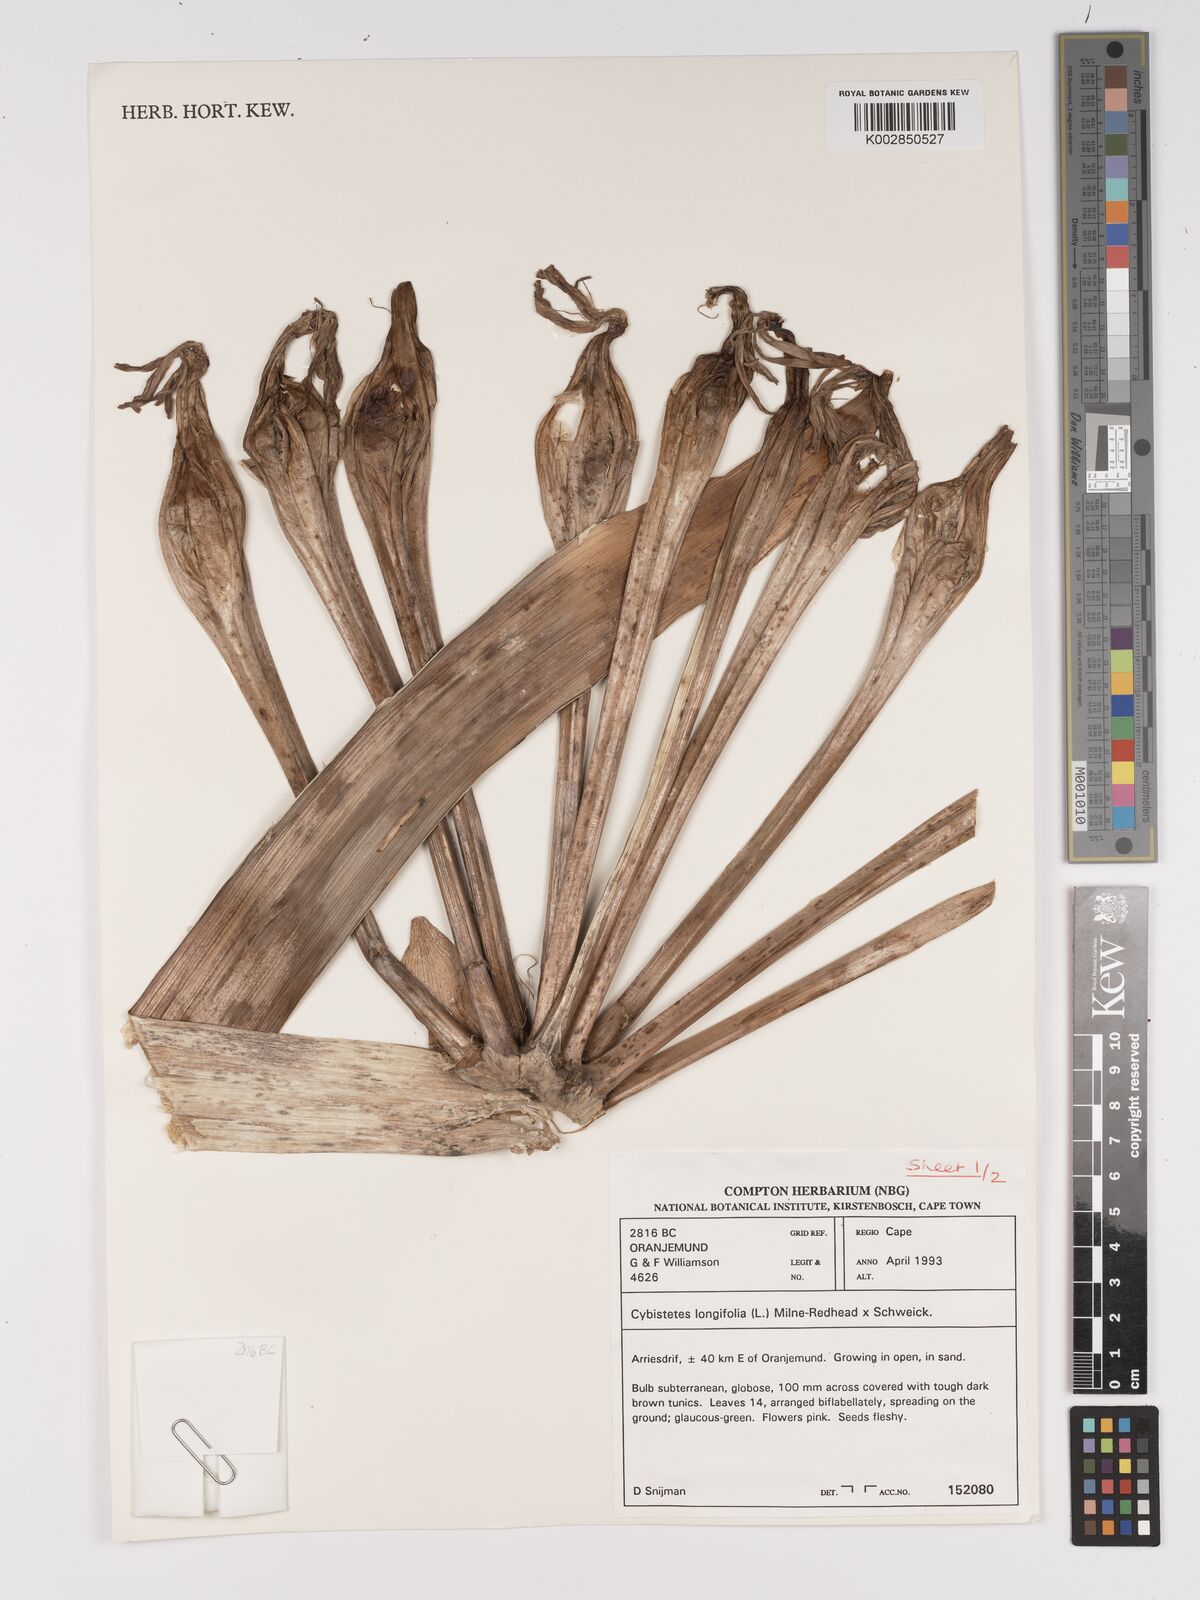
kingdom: Plantae
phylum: Tracheophyta
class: Liliopsida
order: Asparagales
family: Amaryllidaceae
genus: Ammocharis
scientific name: Ammocharis longifolia
